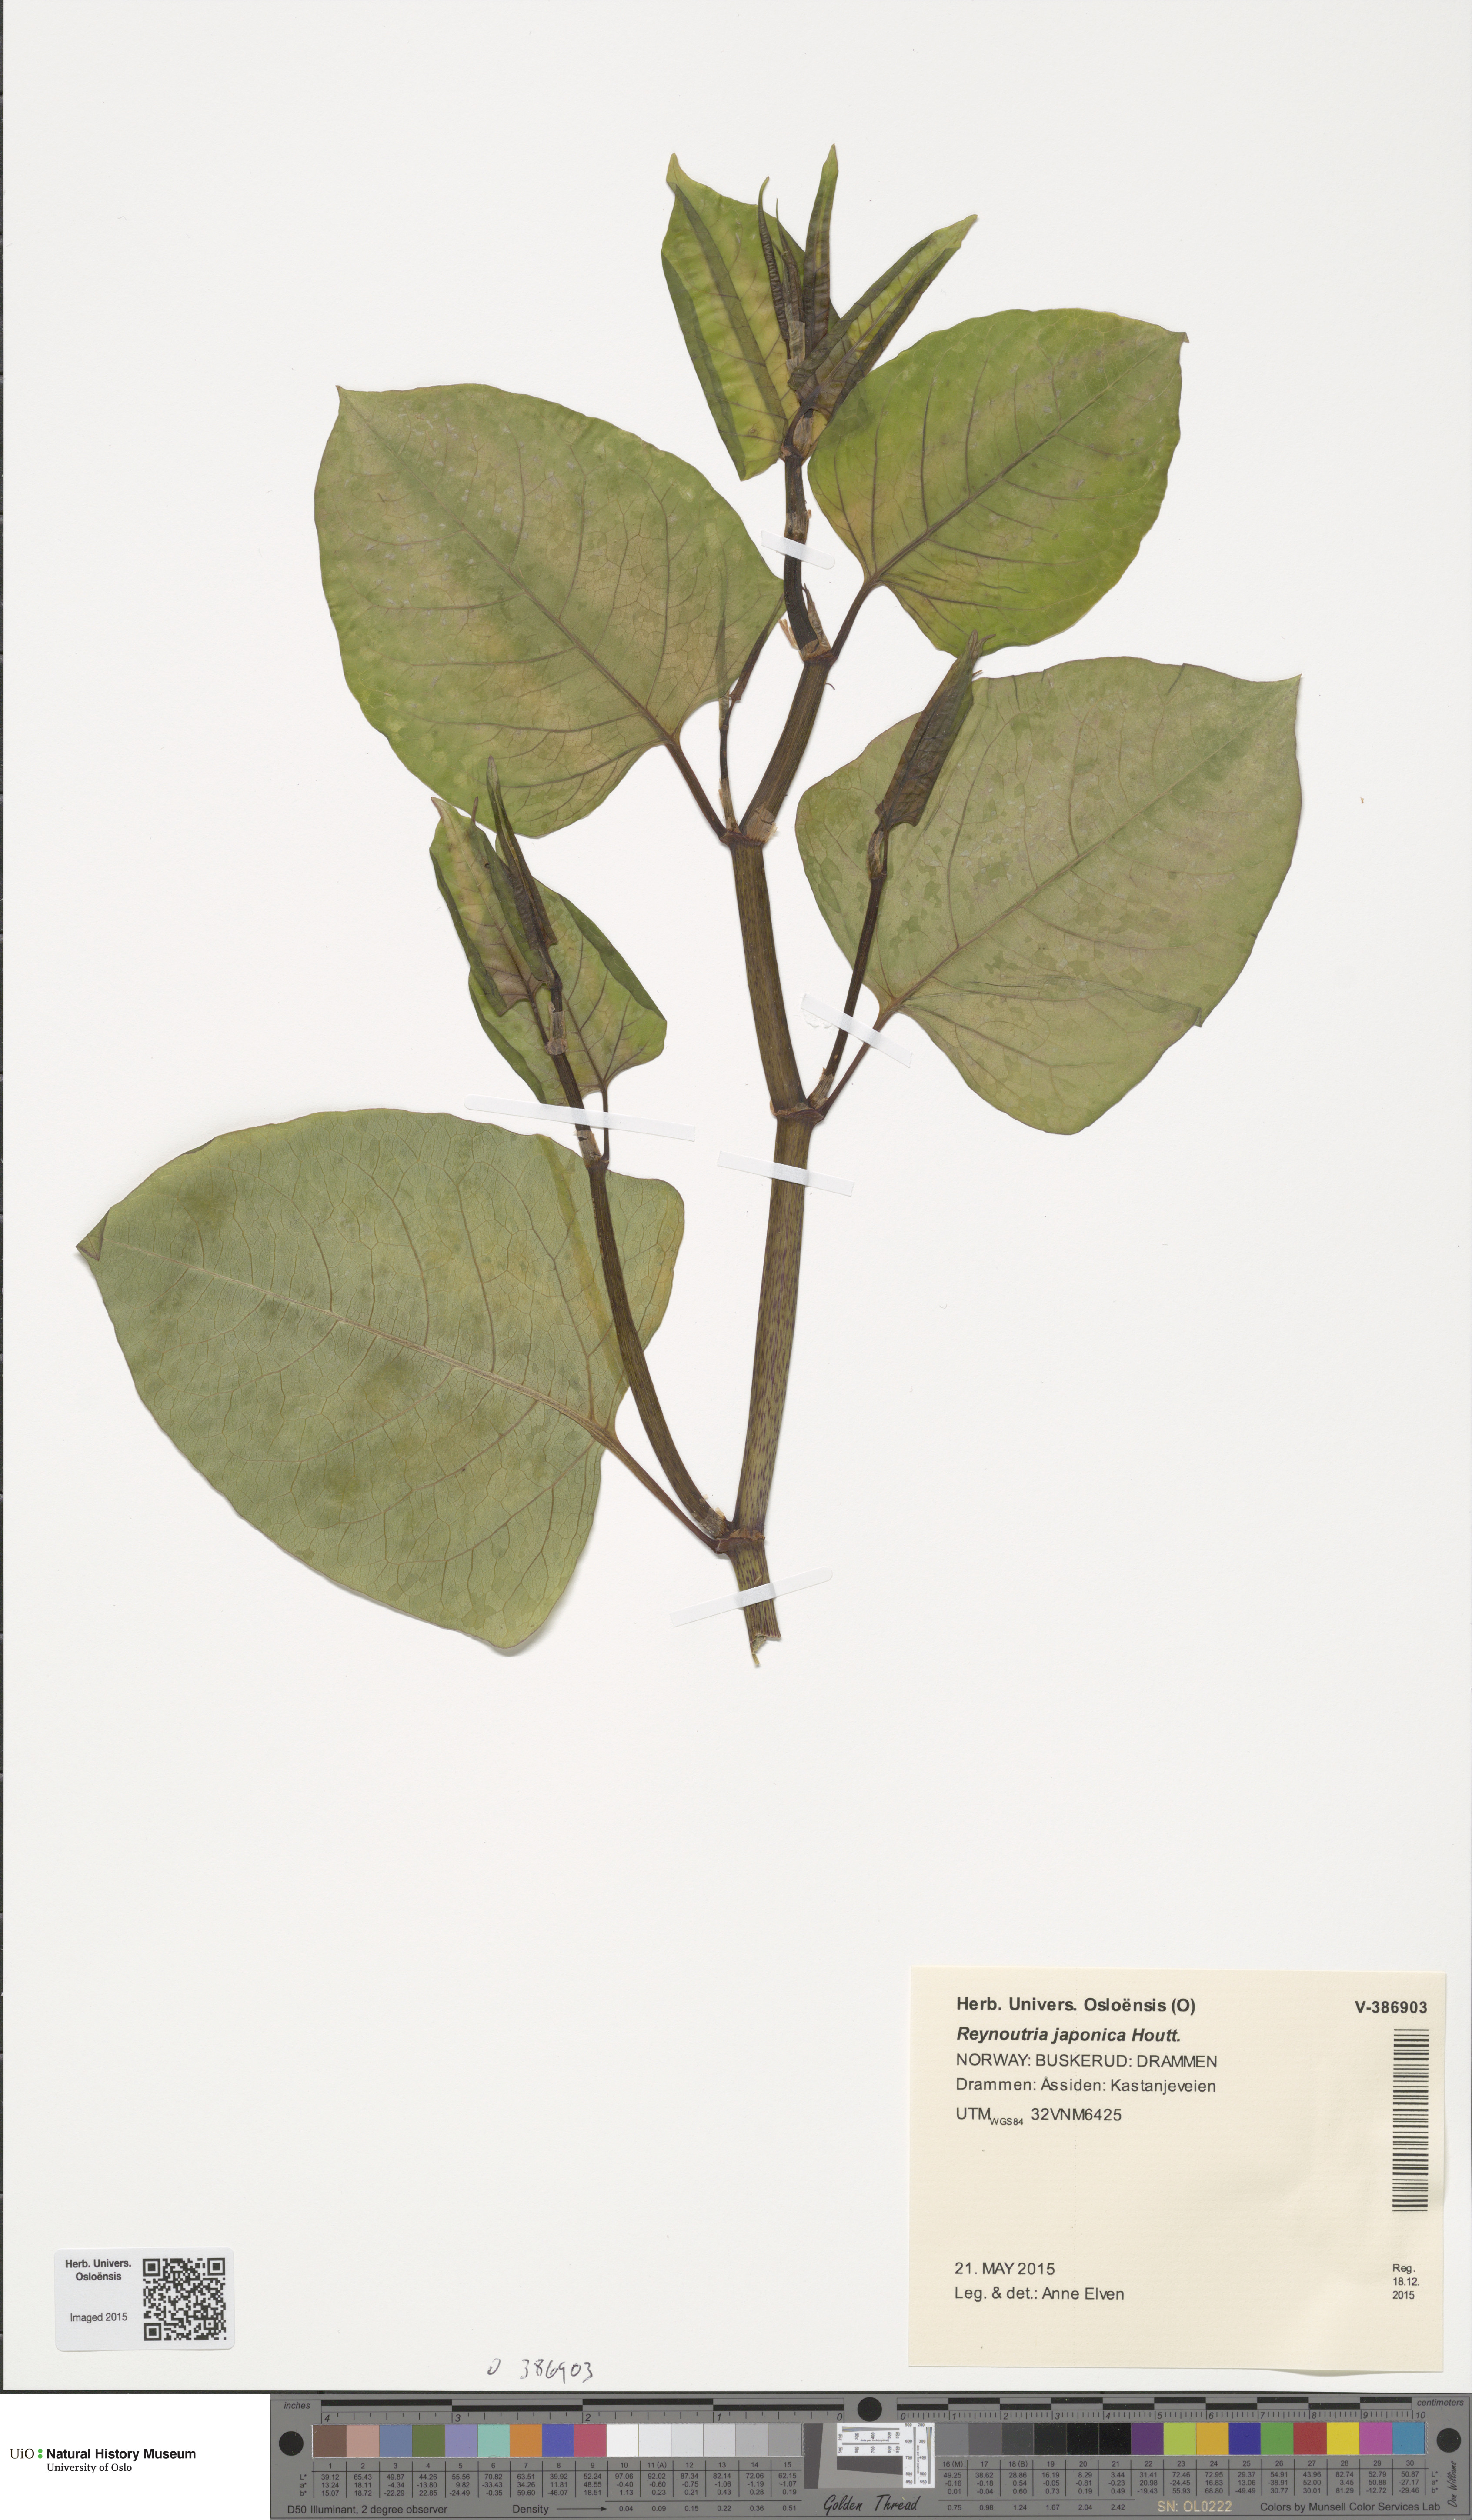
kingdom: Plantae
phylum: Tracheophyta
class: Magnoliopsida
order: Caryophyllales
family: Polygonaceae
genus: Reynoutria
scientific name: Reynoutria japonica
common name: Japanese knotweed
